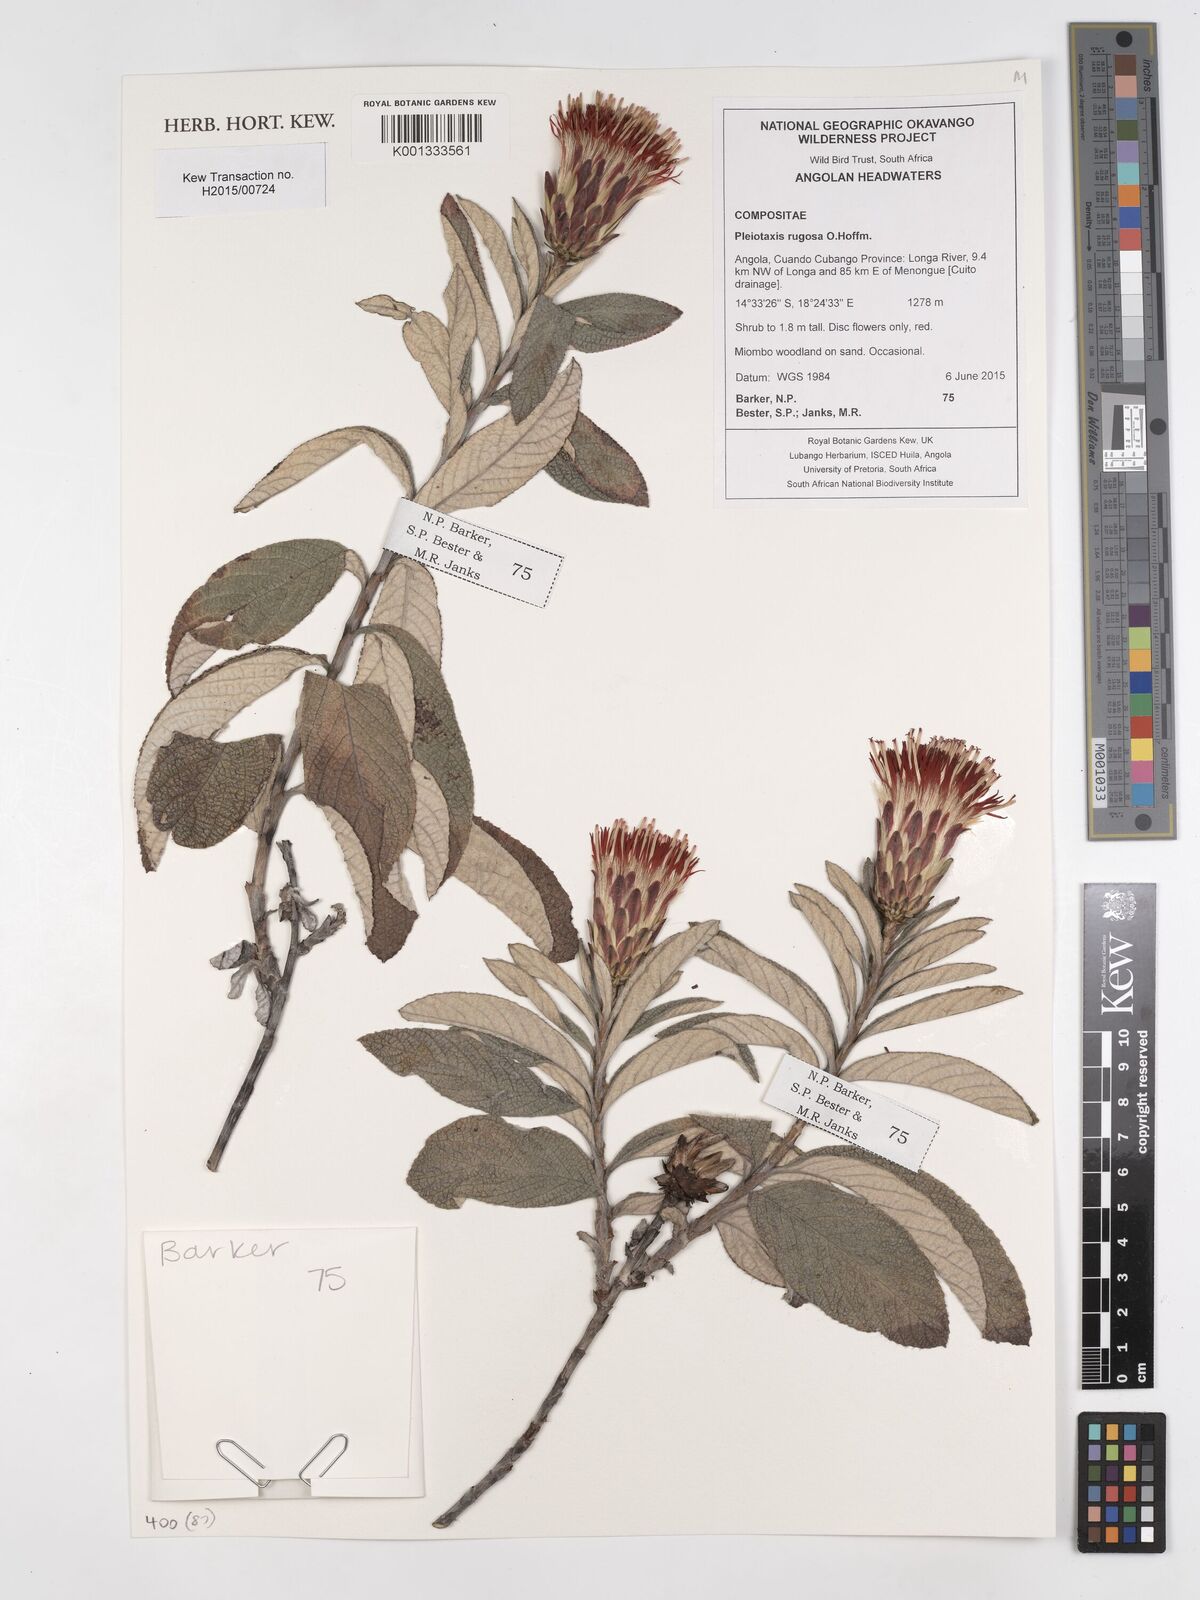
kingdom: Plantae
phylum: Tracheophyta
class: Magnoliopsida
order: Asterales
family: Asteraceae
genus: Pleiotaxis
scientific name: Pleiotaxis rugosa
